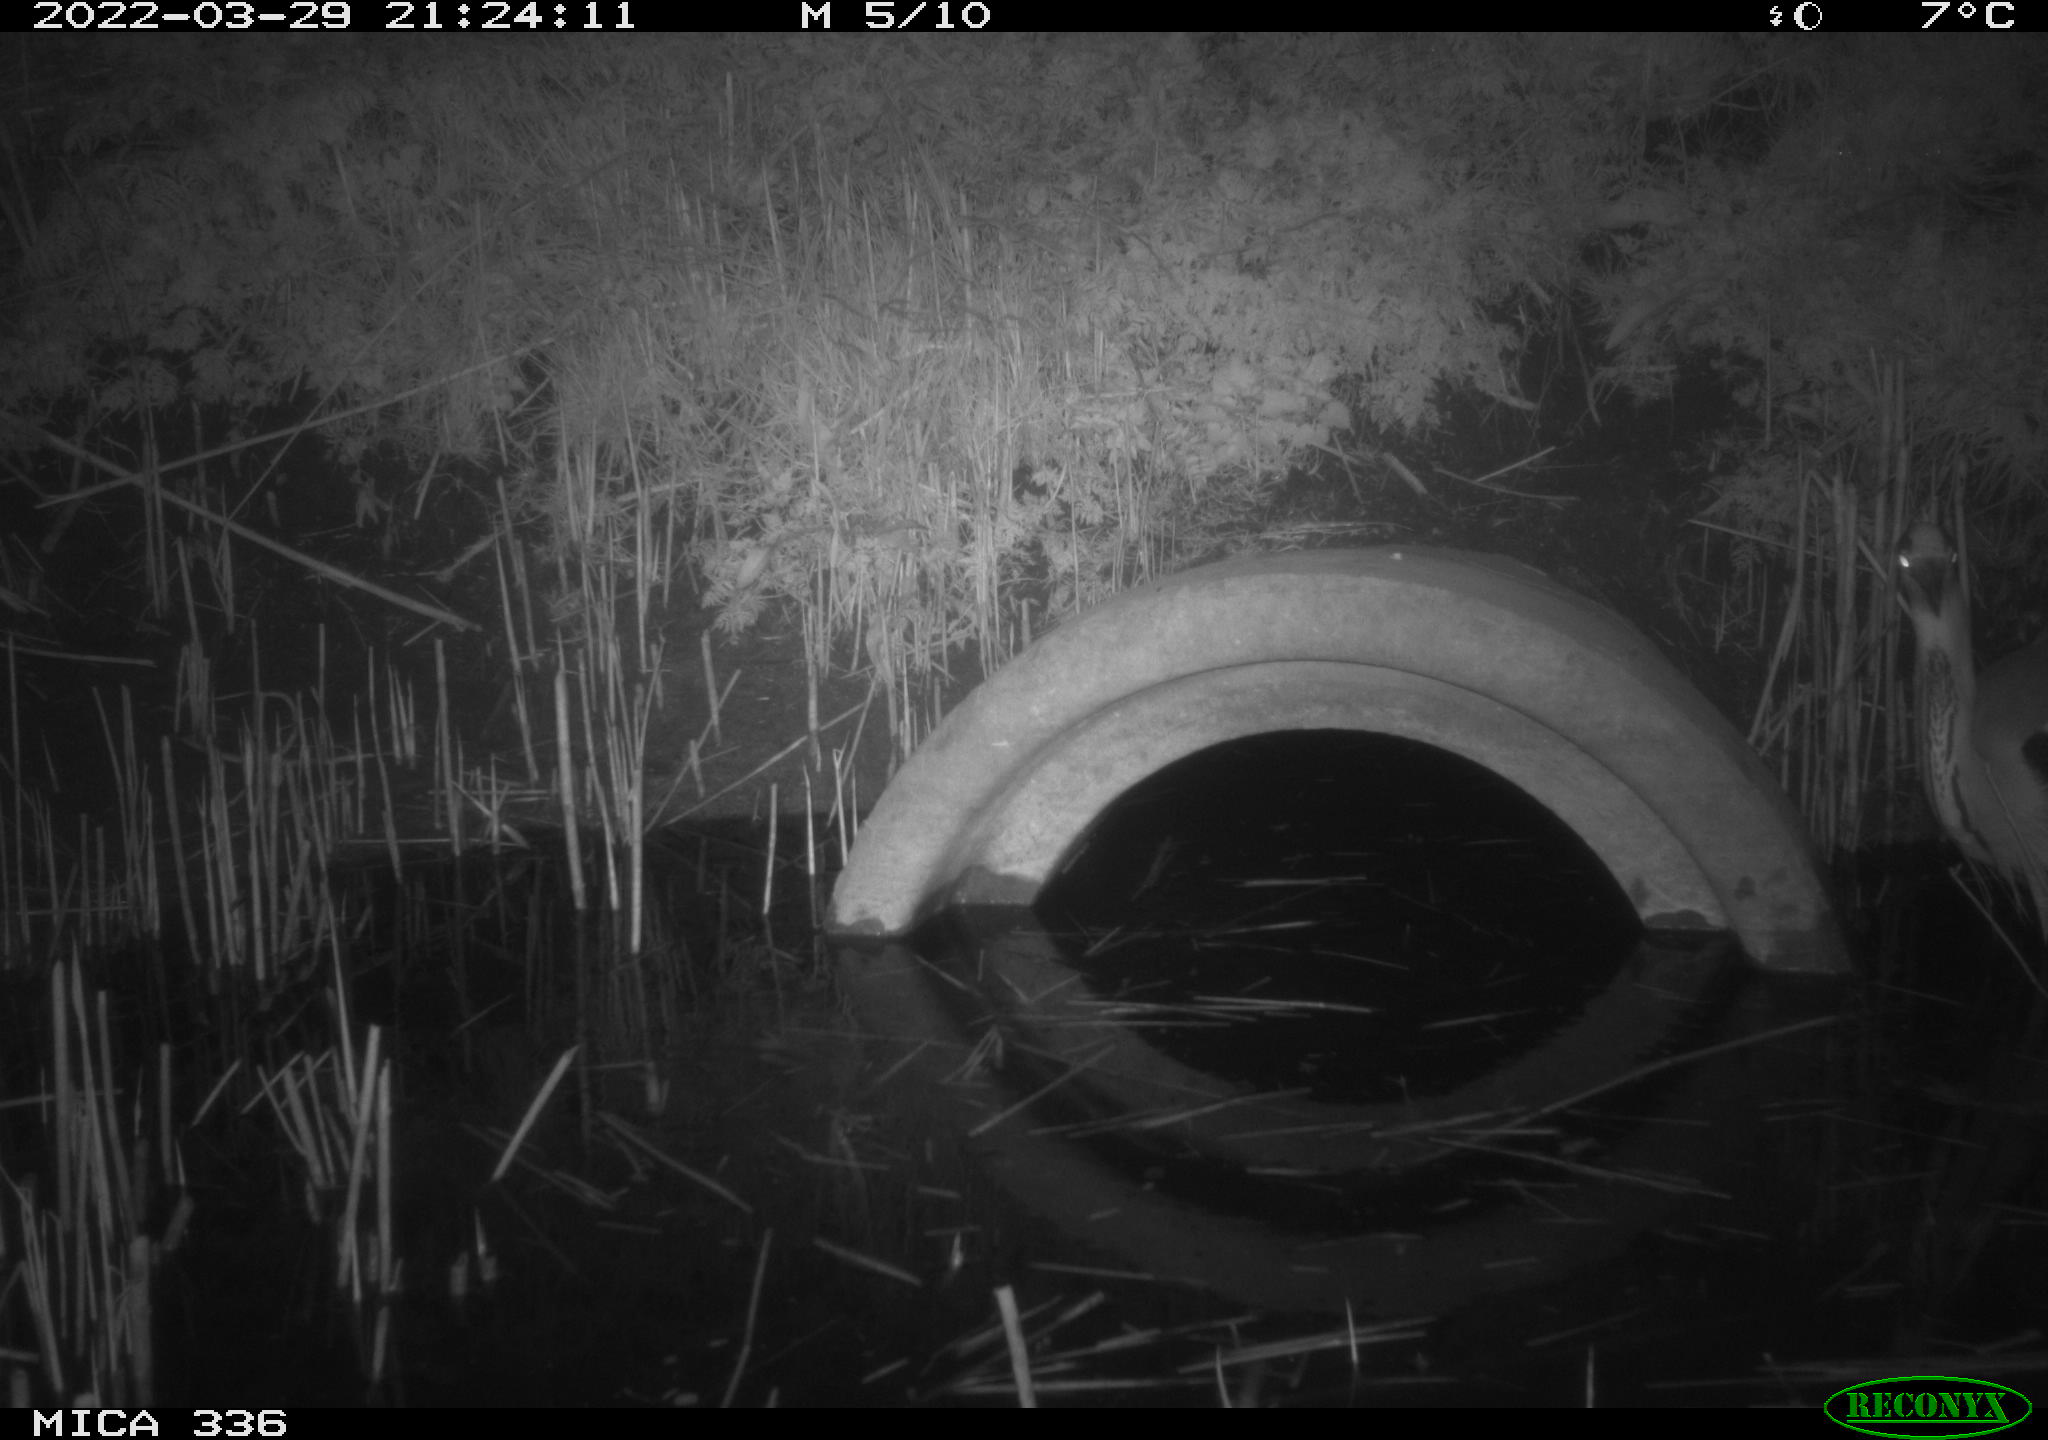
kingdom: Animalia
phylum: Chordata
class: Aves
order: Pelecaniformes
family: Ardeidae
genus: Ardea
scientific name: Ardea cinerea
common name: Grey heron
